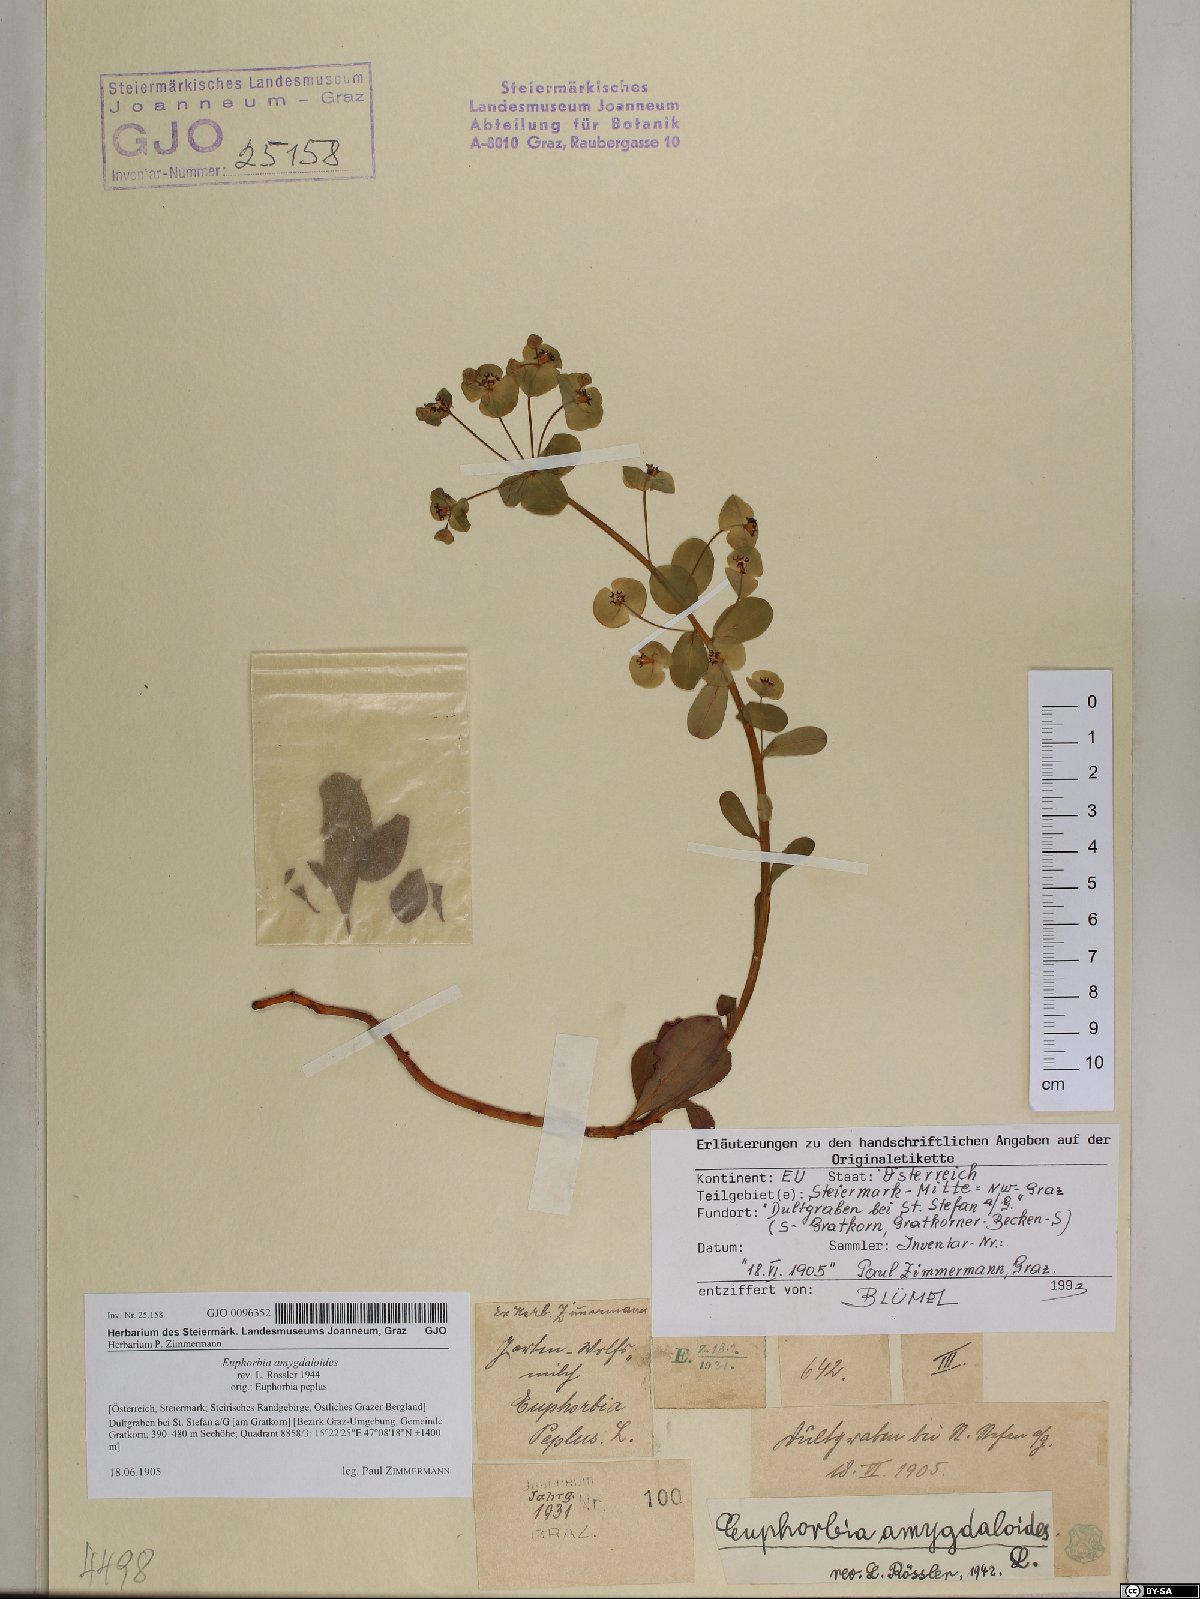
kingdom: Plantae
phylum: Tracheophyta
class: Magnoliopsida
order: Malpighiales
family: Euphorbiaceae
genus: Euphorbia
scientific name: Euphorbia amygdaloides
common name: Wood spurge
